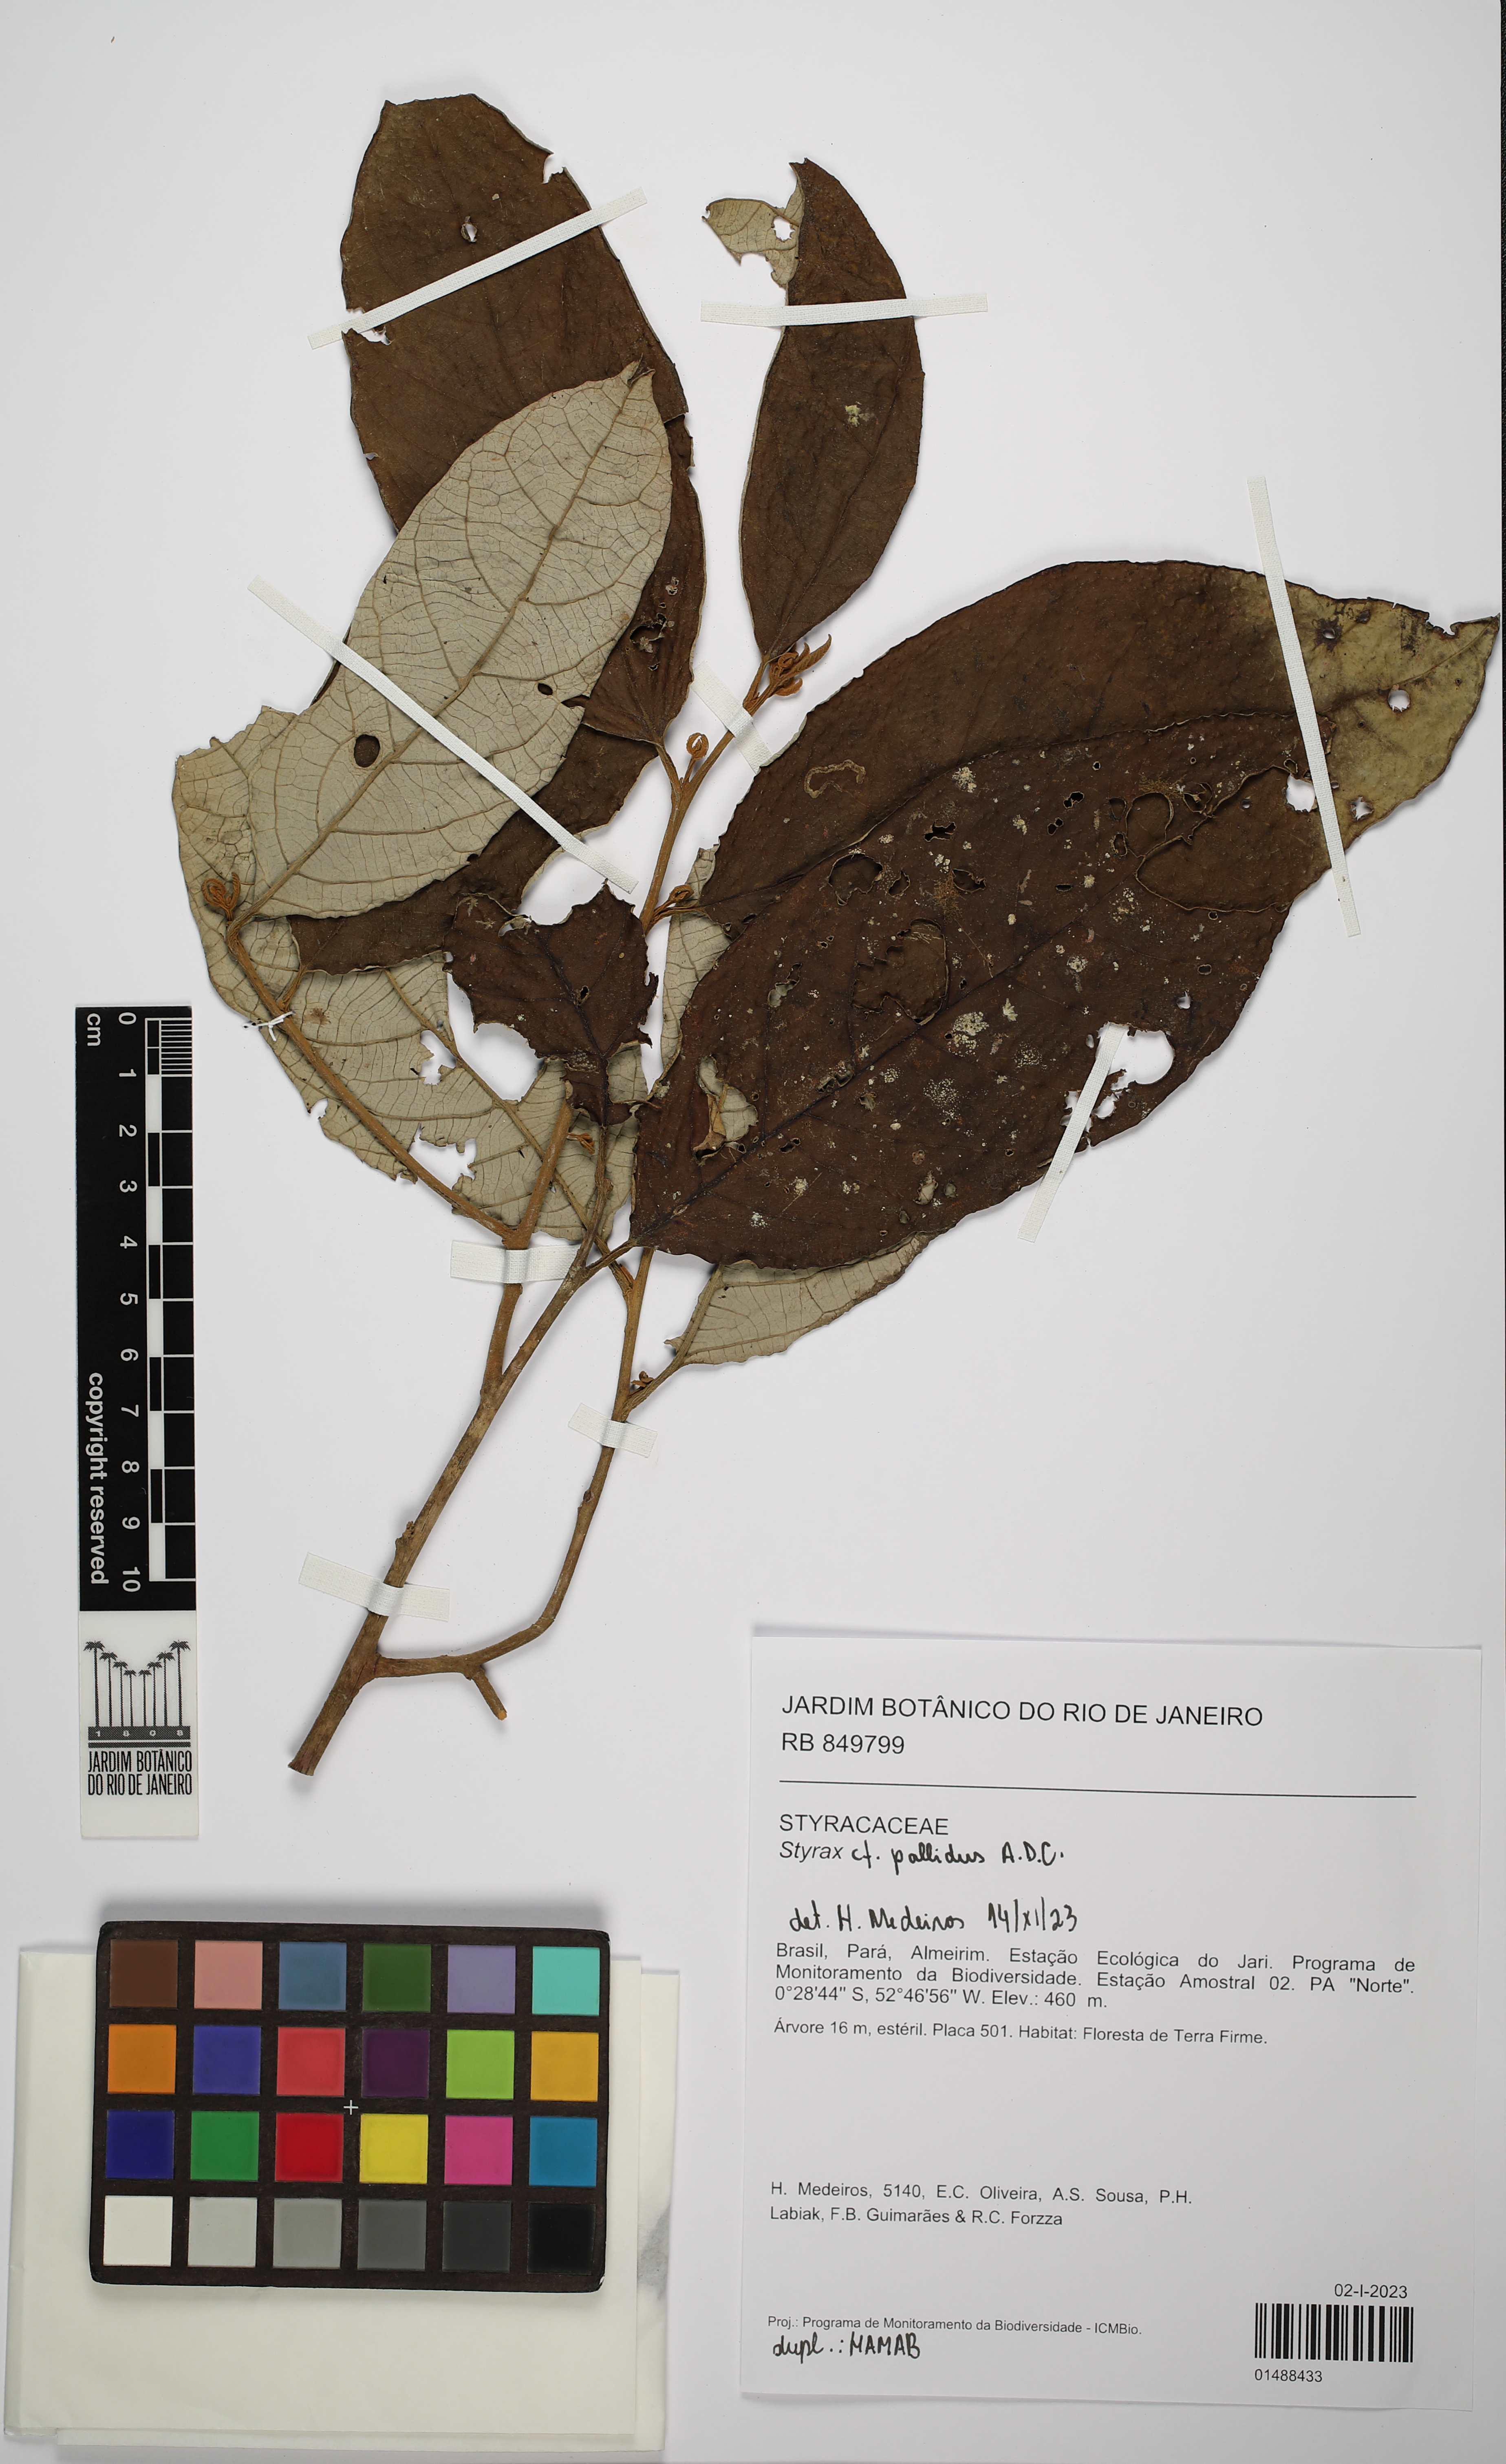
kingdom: Plantae
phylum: Tracheophyta
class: Magnoliopsida
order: Ericales
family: Styracaceae
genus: Styrax
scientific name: Styrax pallidus
